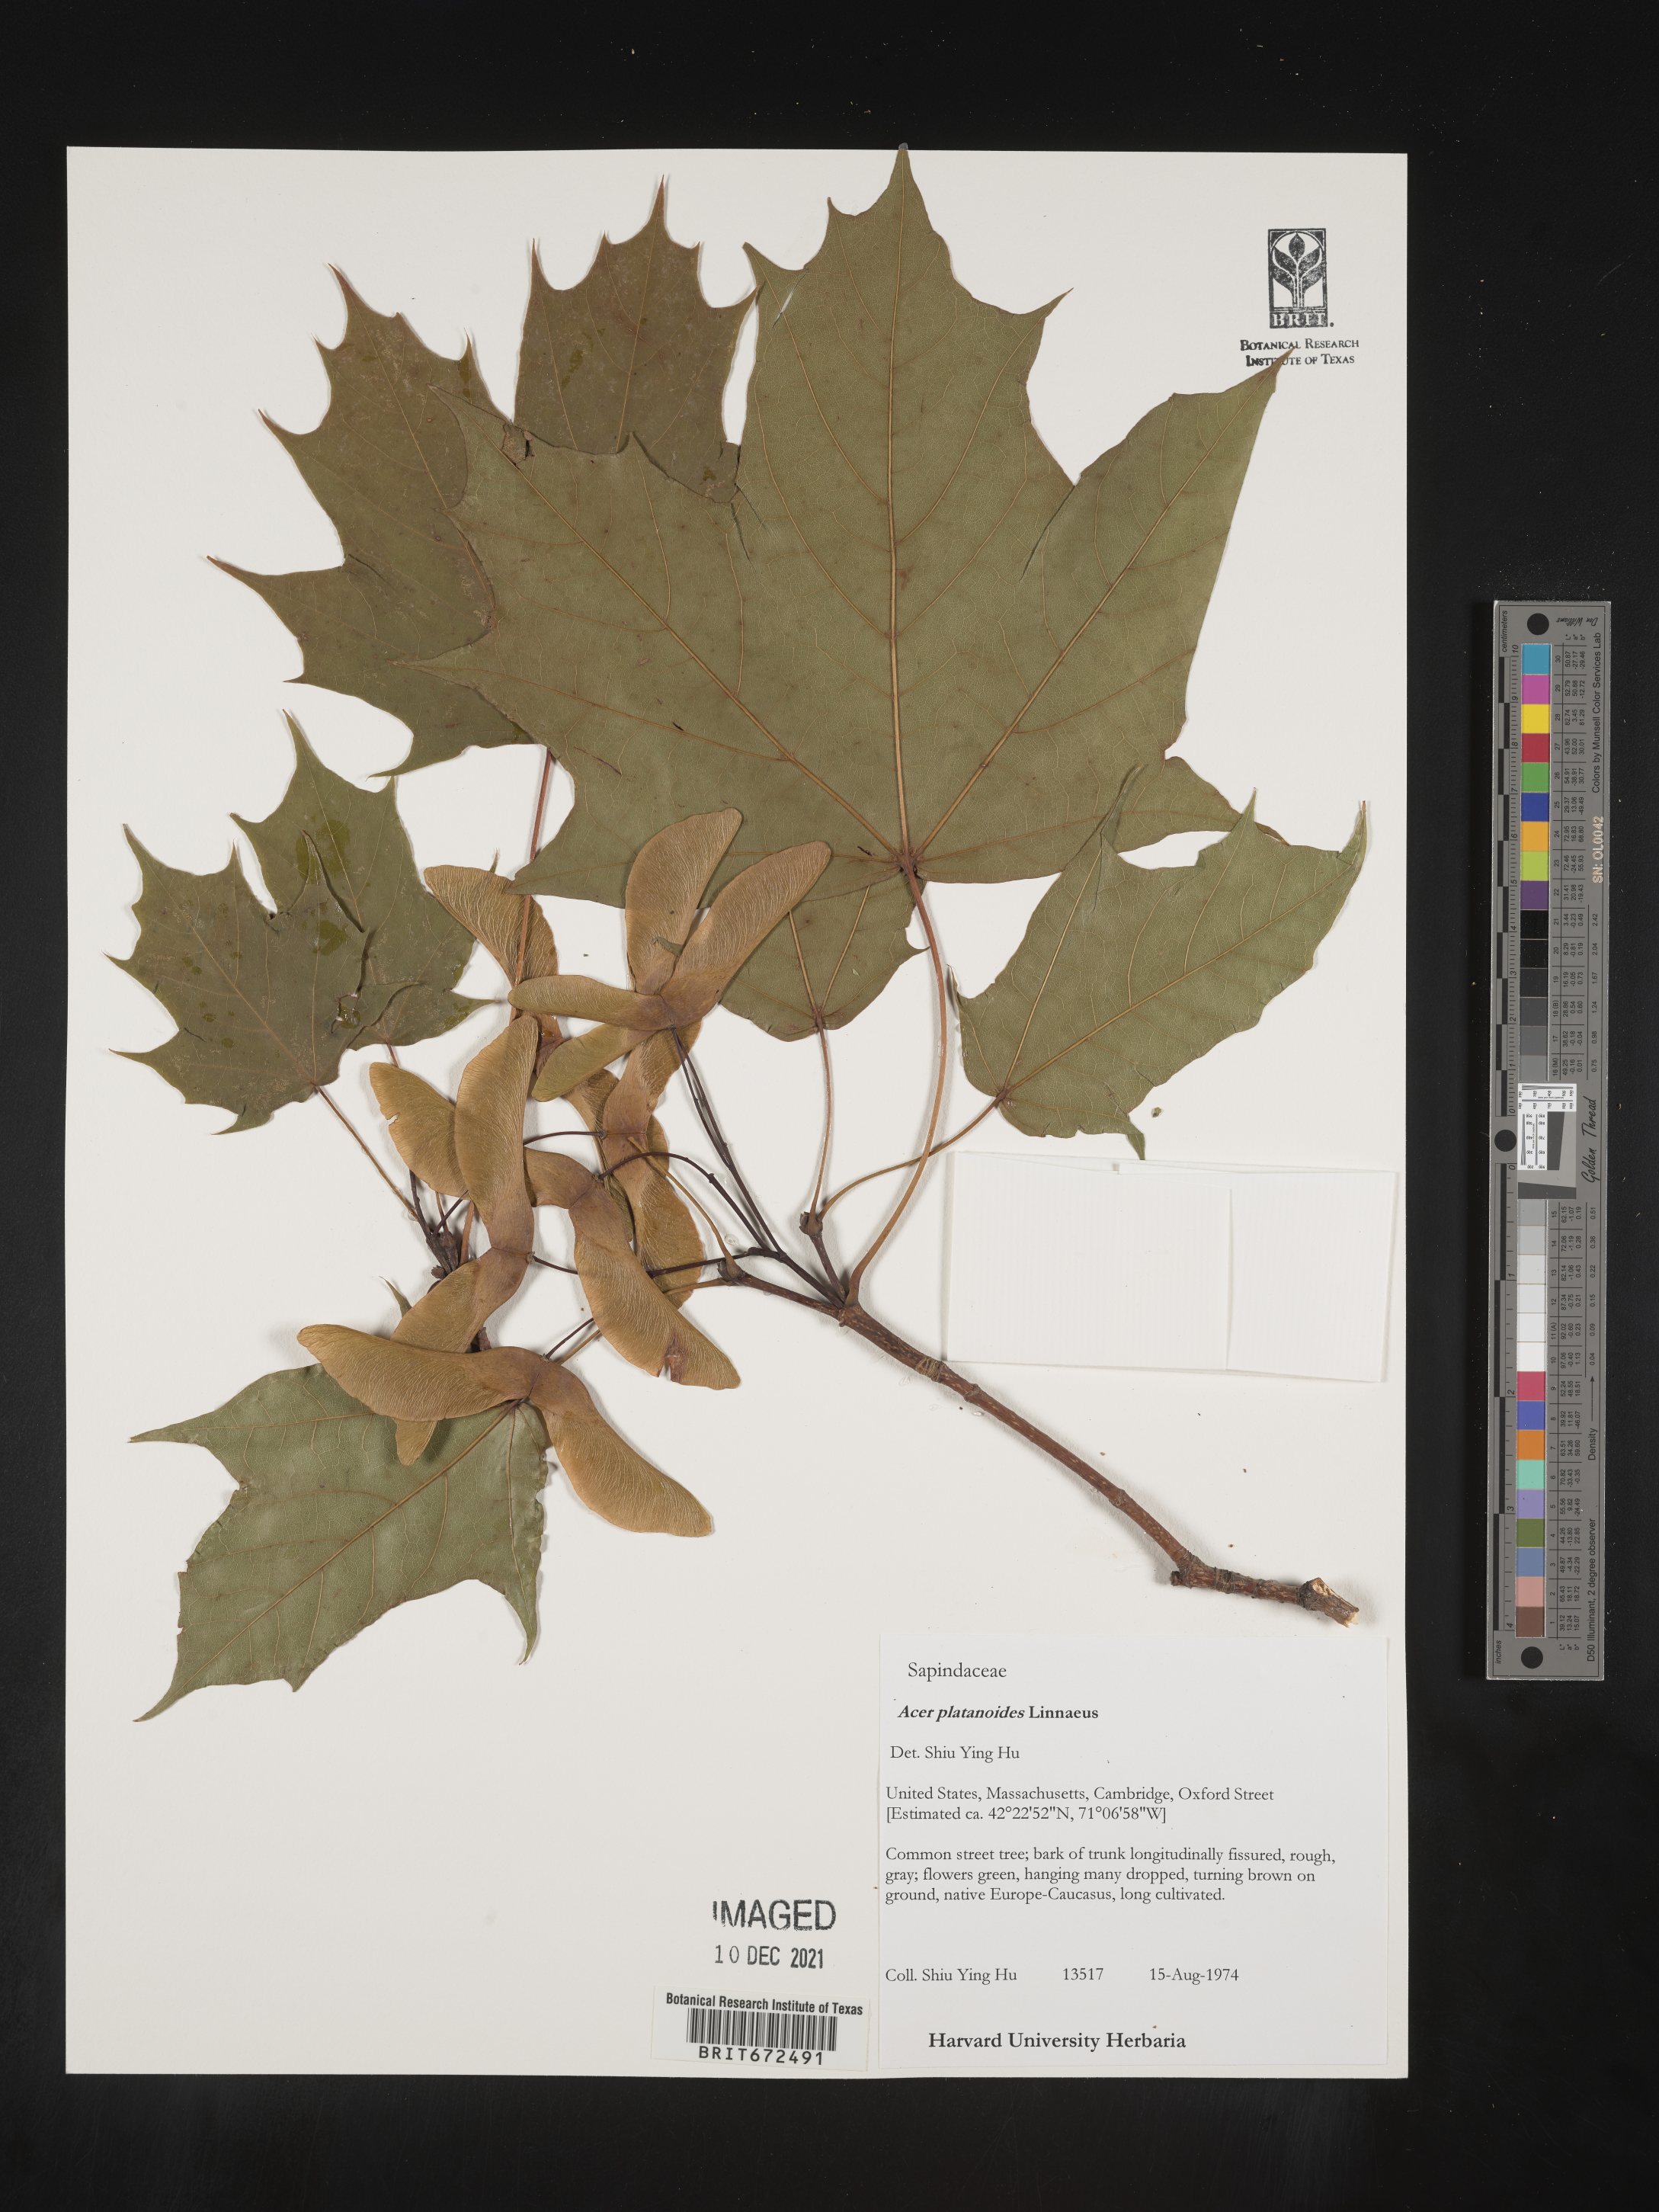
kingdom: Plantae
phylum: Tracheophyta
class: Magnoliopsida
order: Sapindales
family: Sapindaceae
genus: Acer
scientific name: Acer platanoides
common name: Norway maple
